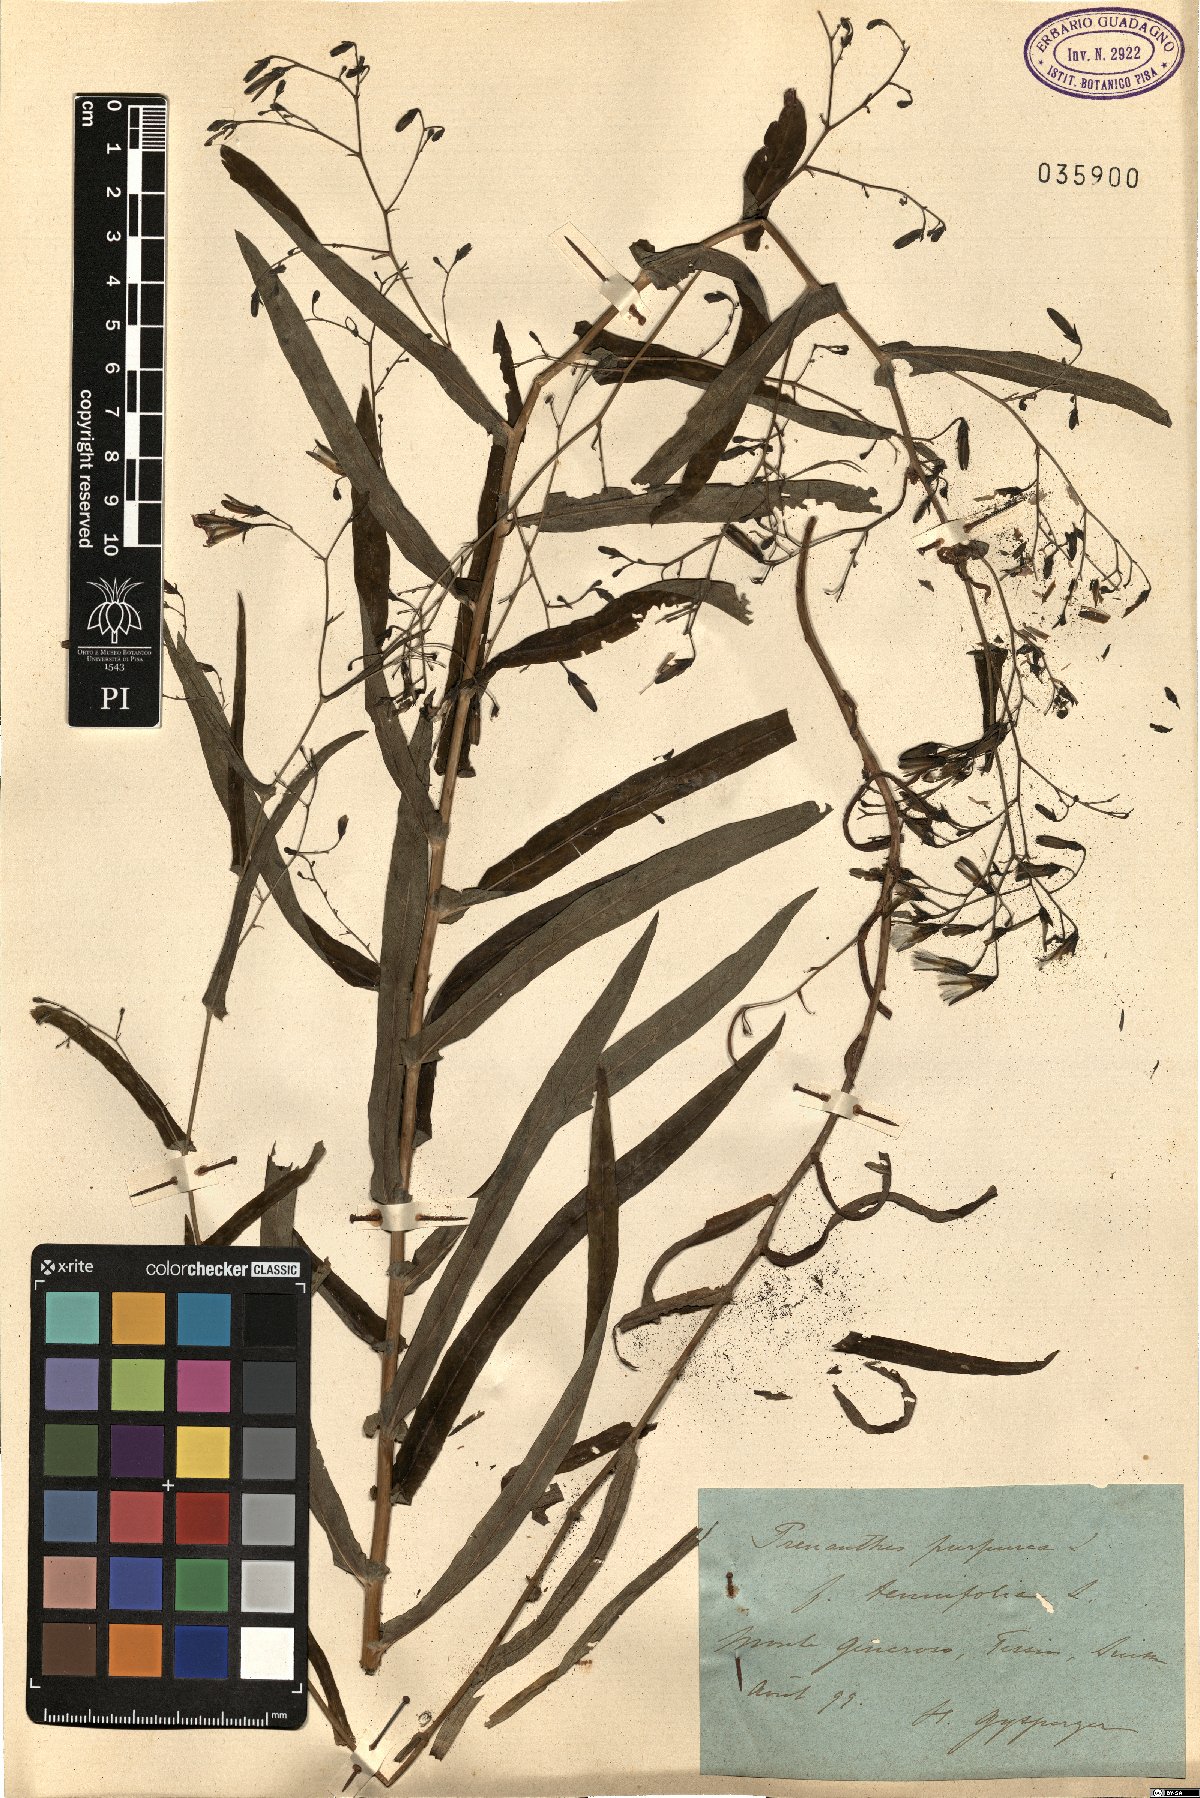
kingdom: Plantae
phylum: Tracheophyta
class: Magnoliopsida
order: Asterales
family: Asteraceae
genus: Prenanthes
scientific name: Prenanthes purpurea
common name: Purple lettuce
